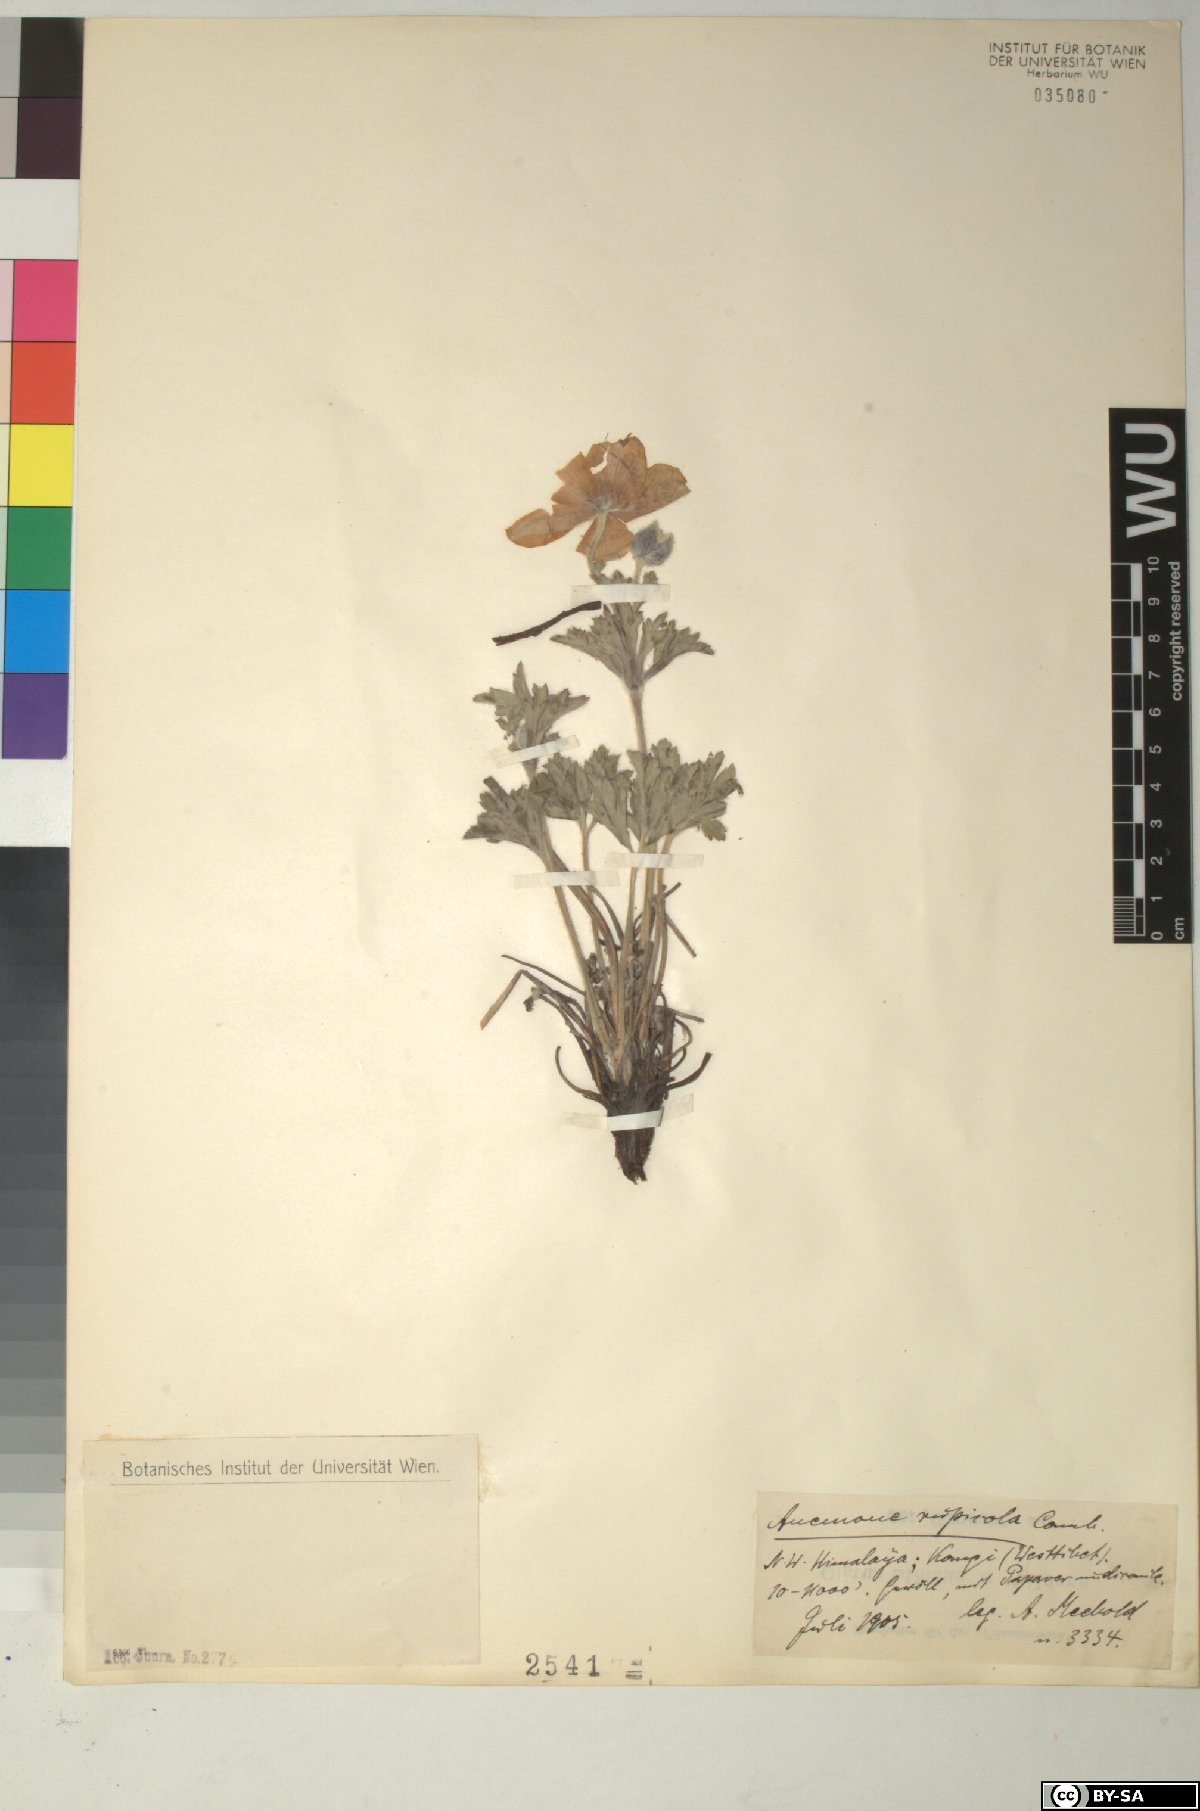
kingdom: Plantae
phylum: Tracheophyta
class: Magnoliopsida
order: Ranunculales
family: Ranunculaceae
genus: Eriocapitella
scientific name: Eriocapitella rupicola
